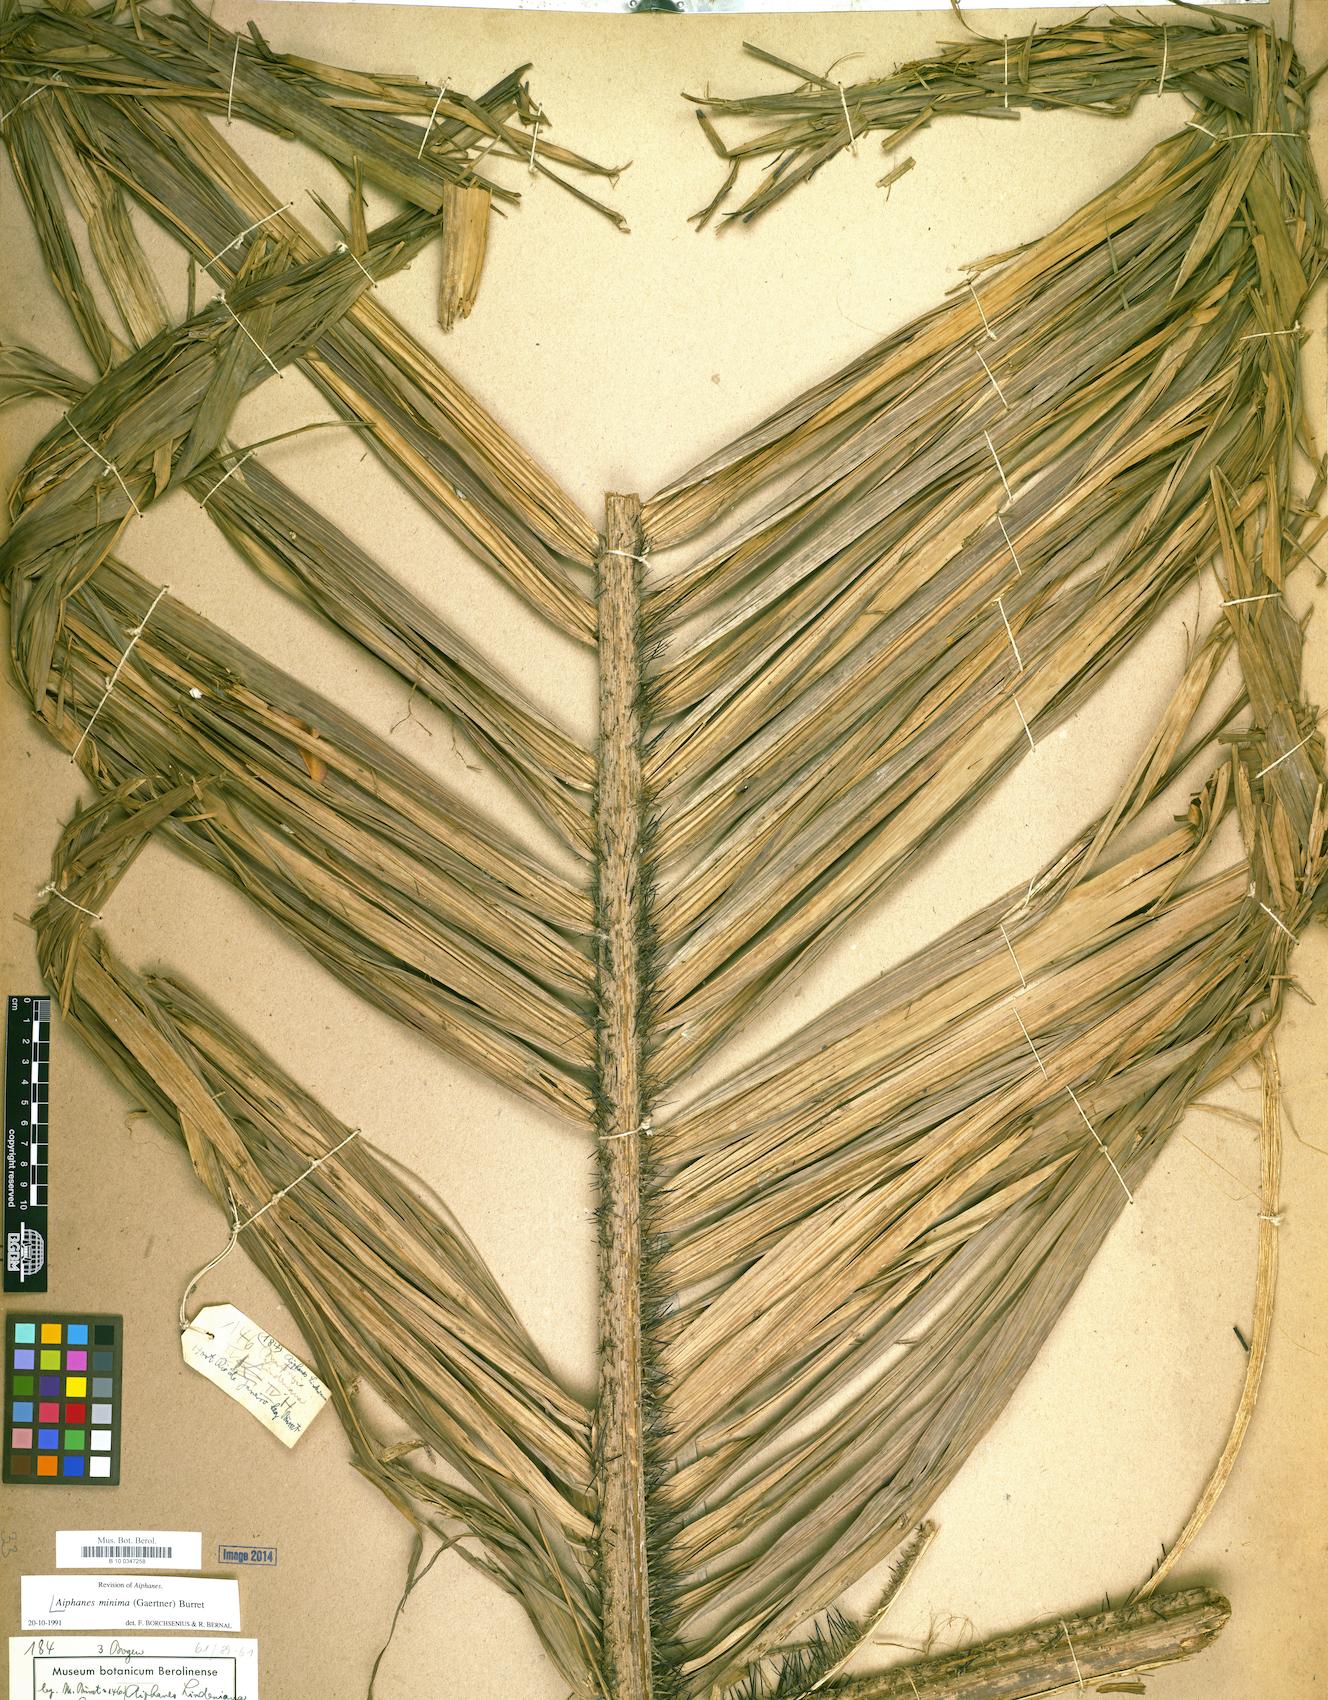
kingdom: Plantae
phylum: Tracheophyta
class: Liliopsida
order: Arecales
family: Arecaceae
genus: Aiphanes
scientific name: Aiphanes minima
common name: Grigri
